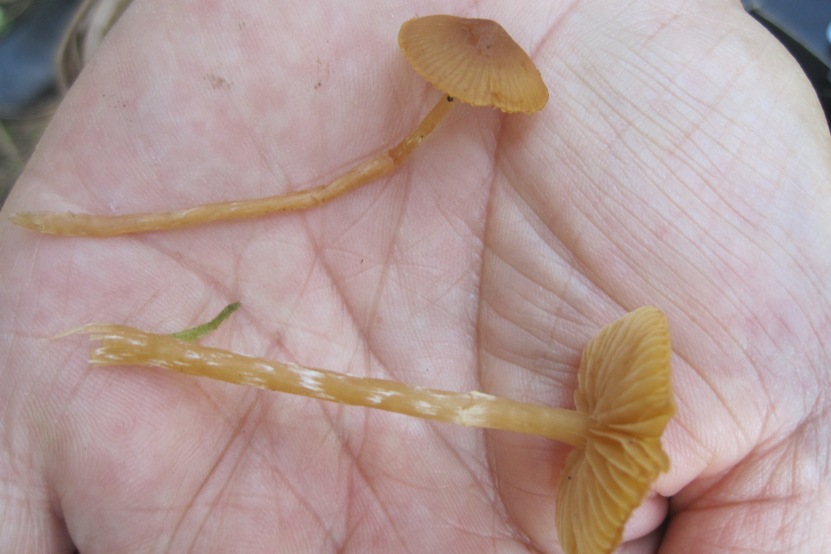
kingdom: Fungi
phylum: Basidiomycota
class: Agaricomycetes
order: Agaricales
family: Hymenogastraceae
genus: Galerina
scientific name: Galerina paludosa
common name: mose-hjelmhat
